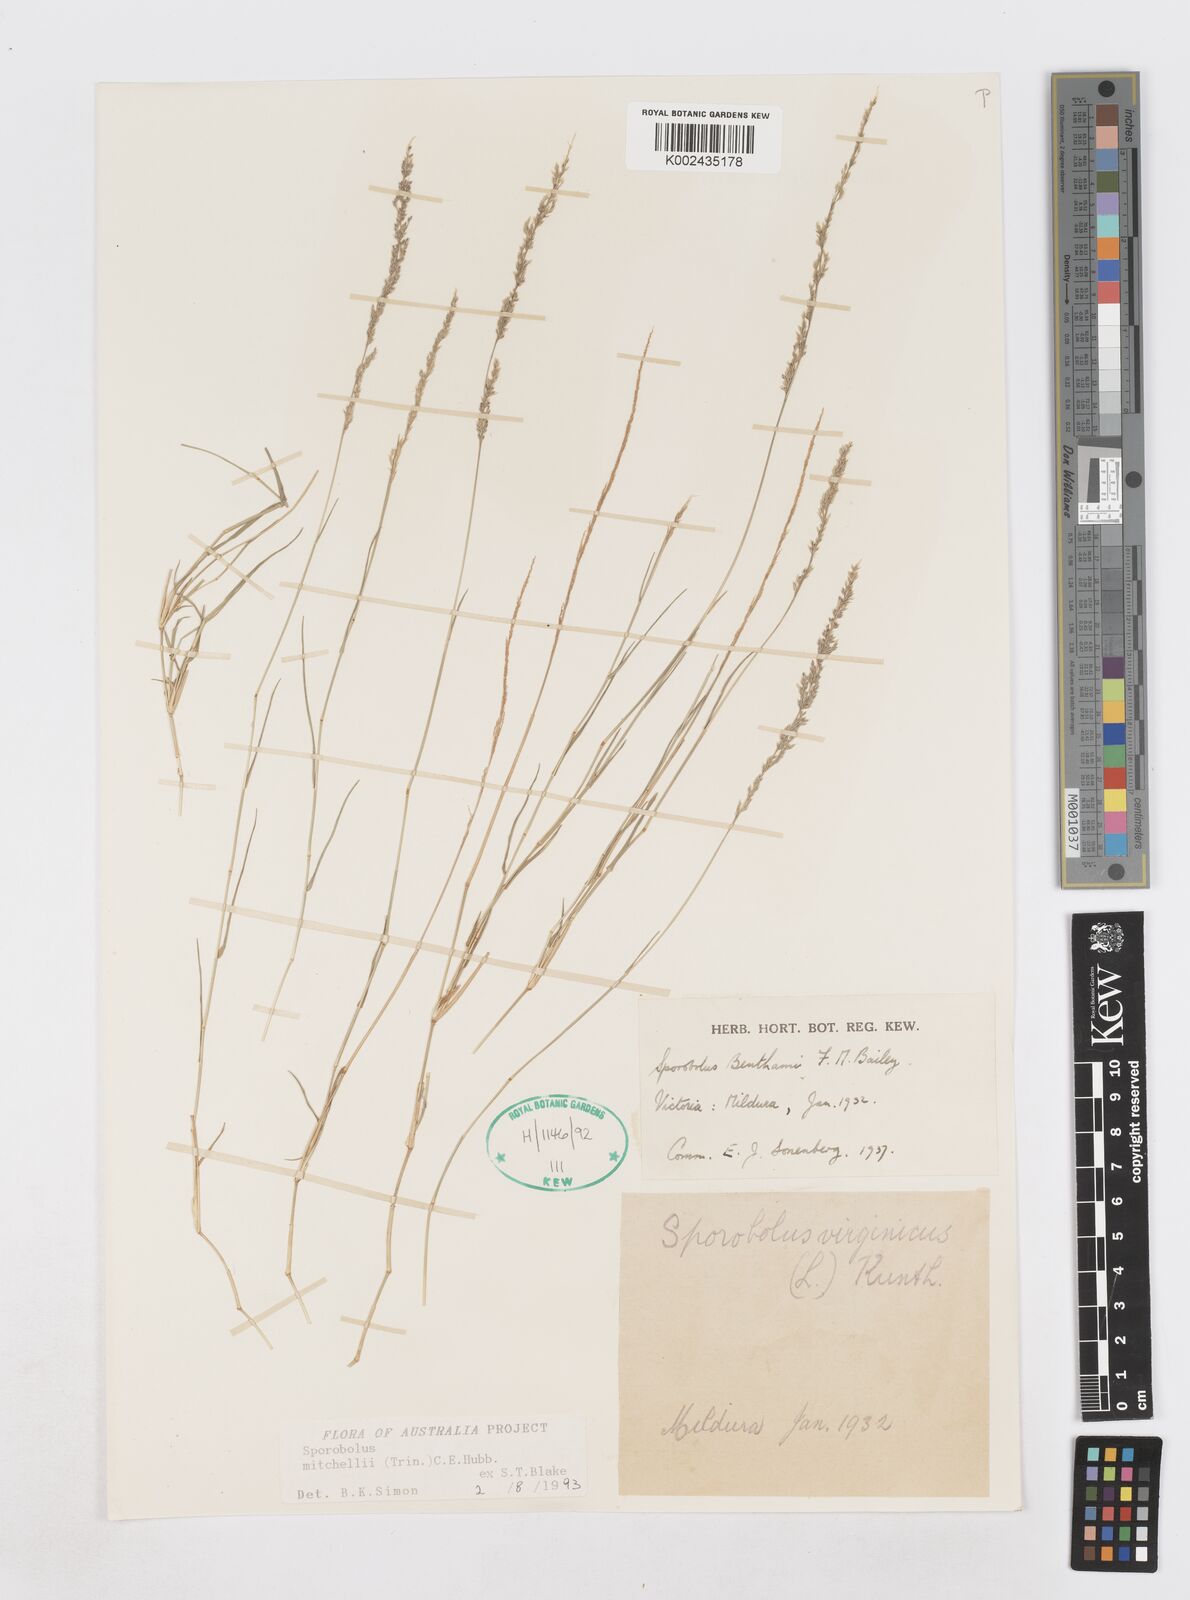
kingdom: Plantae
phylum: Tracheophyta
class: Liliopsida
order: Poales
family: Poaceae
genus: Sporobolus
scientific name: Sporobolus mitchellii
